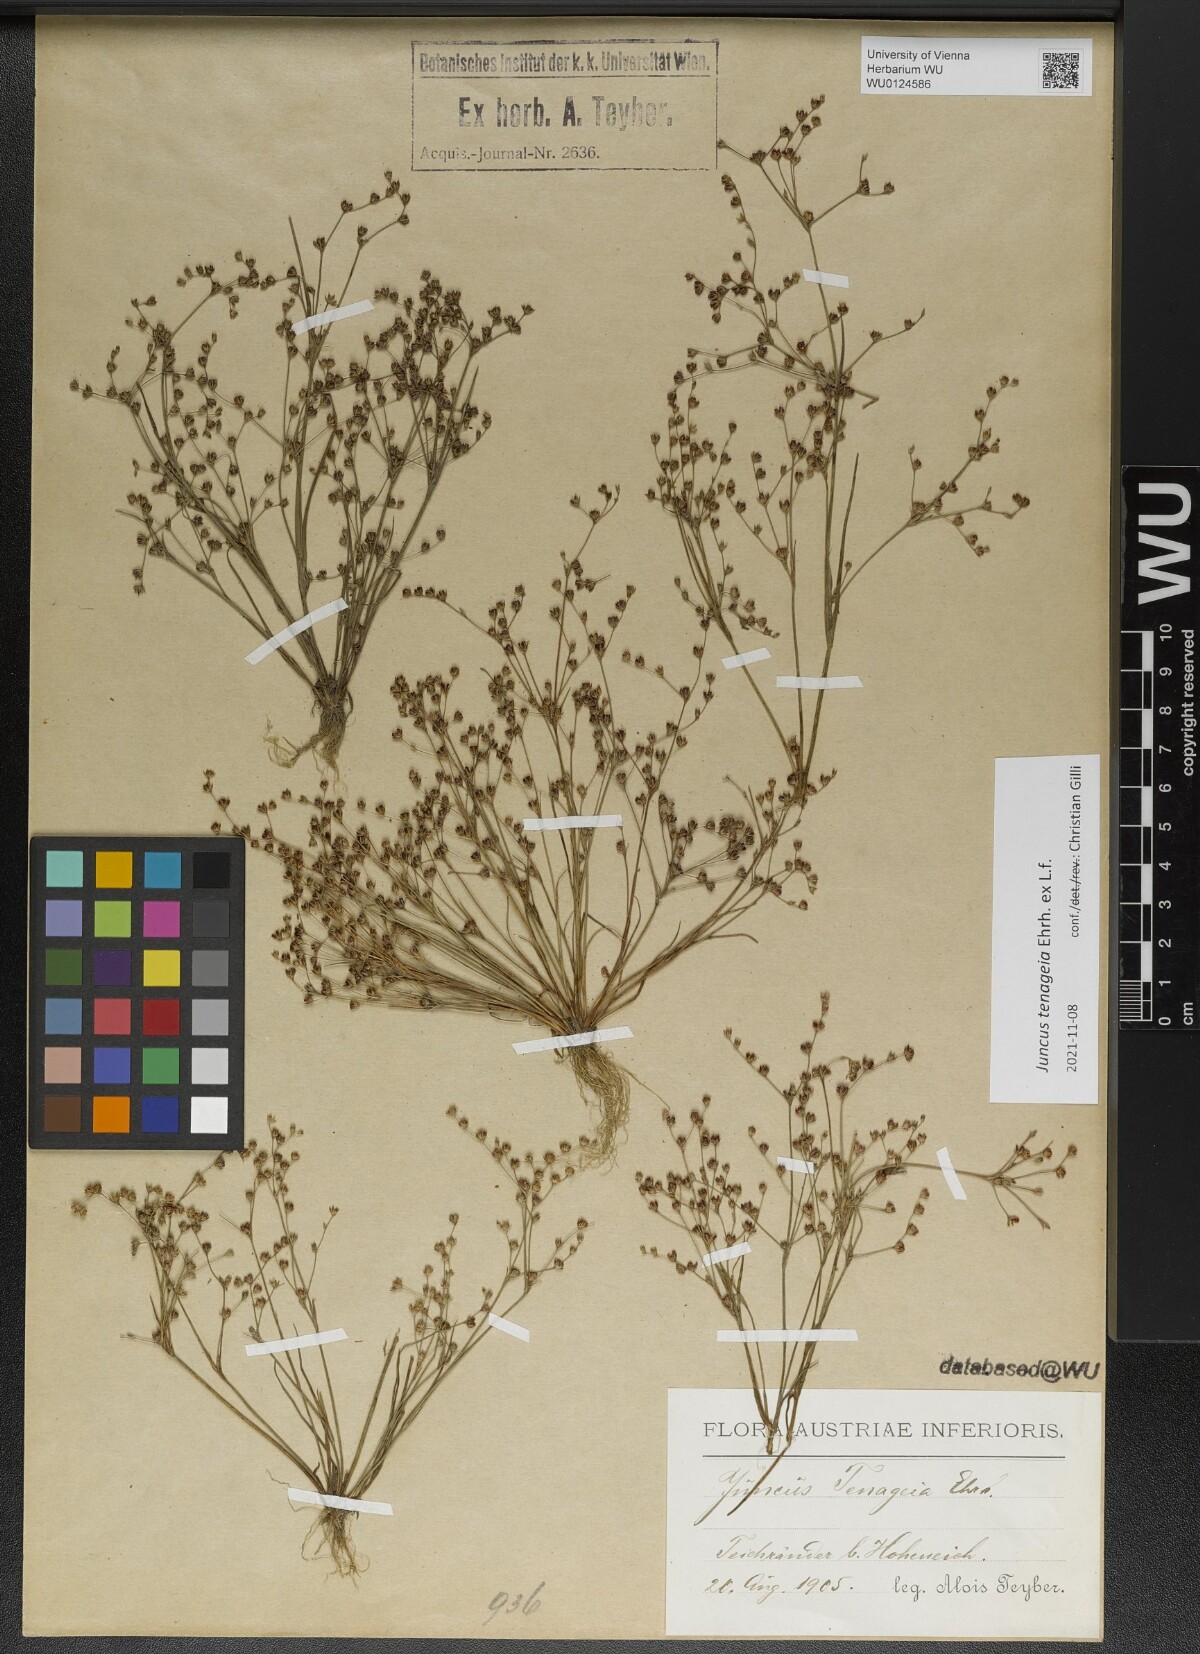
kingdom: Plantae
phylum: Tracheophyta
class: Liliopsida
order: Poales
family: Juncaceae
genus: Juncus
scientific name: Juncus tenageia
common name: Sand rush
